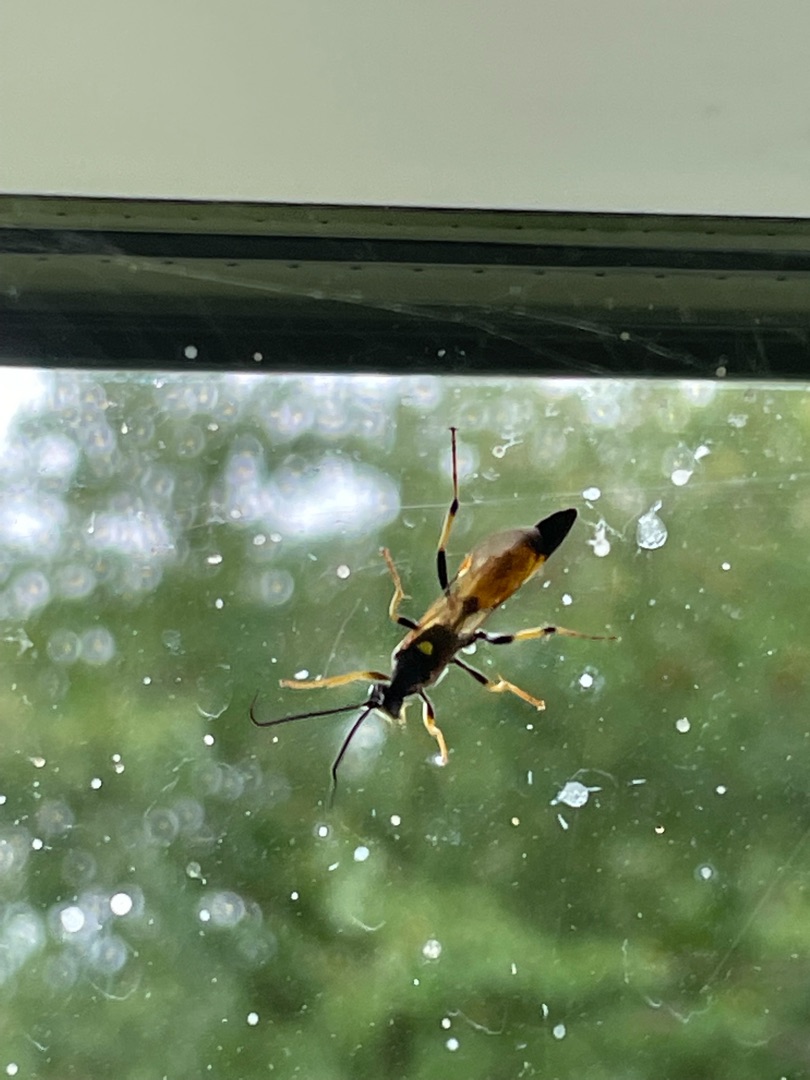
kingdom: Animalia
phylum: Arthropoda
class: Insecta
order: Hymenoptera
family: Ichneumonidae
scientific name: Ichneumonidae
